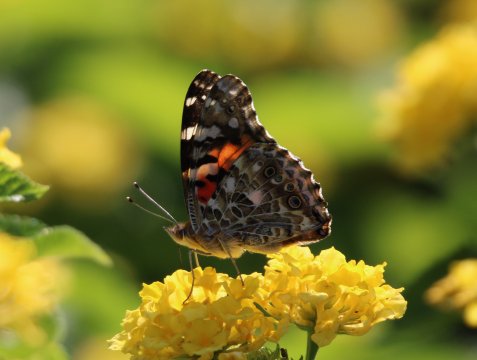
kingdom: Animalia
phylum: Arthropoda
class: Insecta
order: Lepidoptera
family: Nymphalidae
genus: Vanessa
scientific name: Vanessa cardui
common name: Painted Lady
